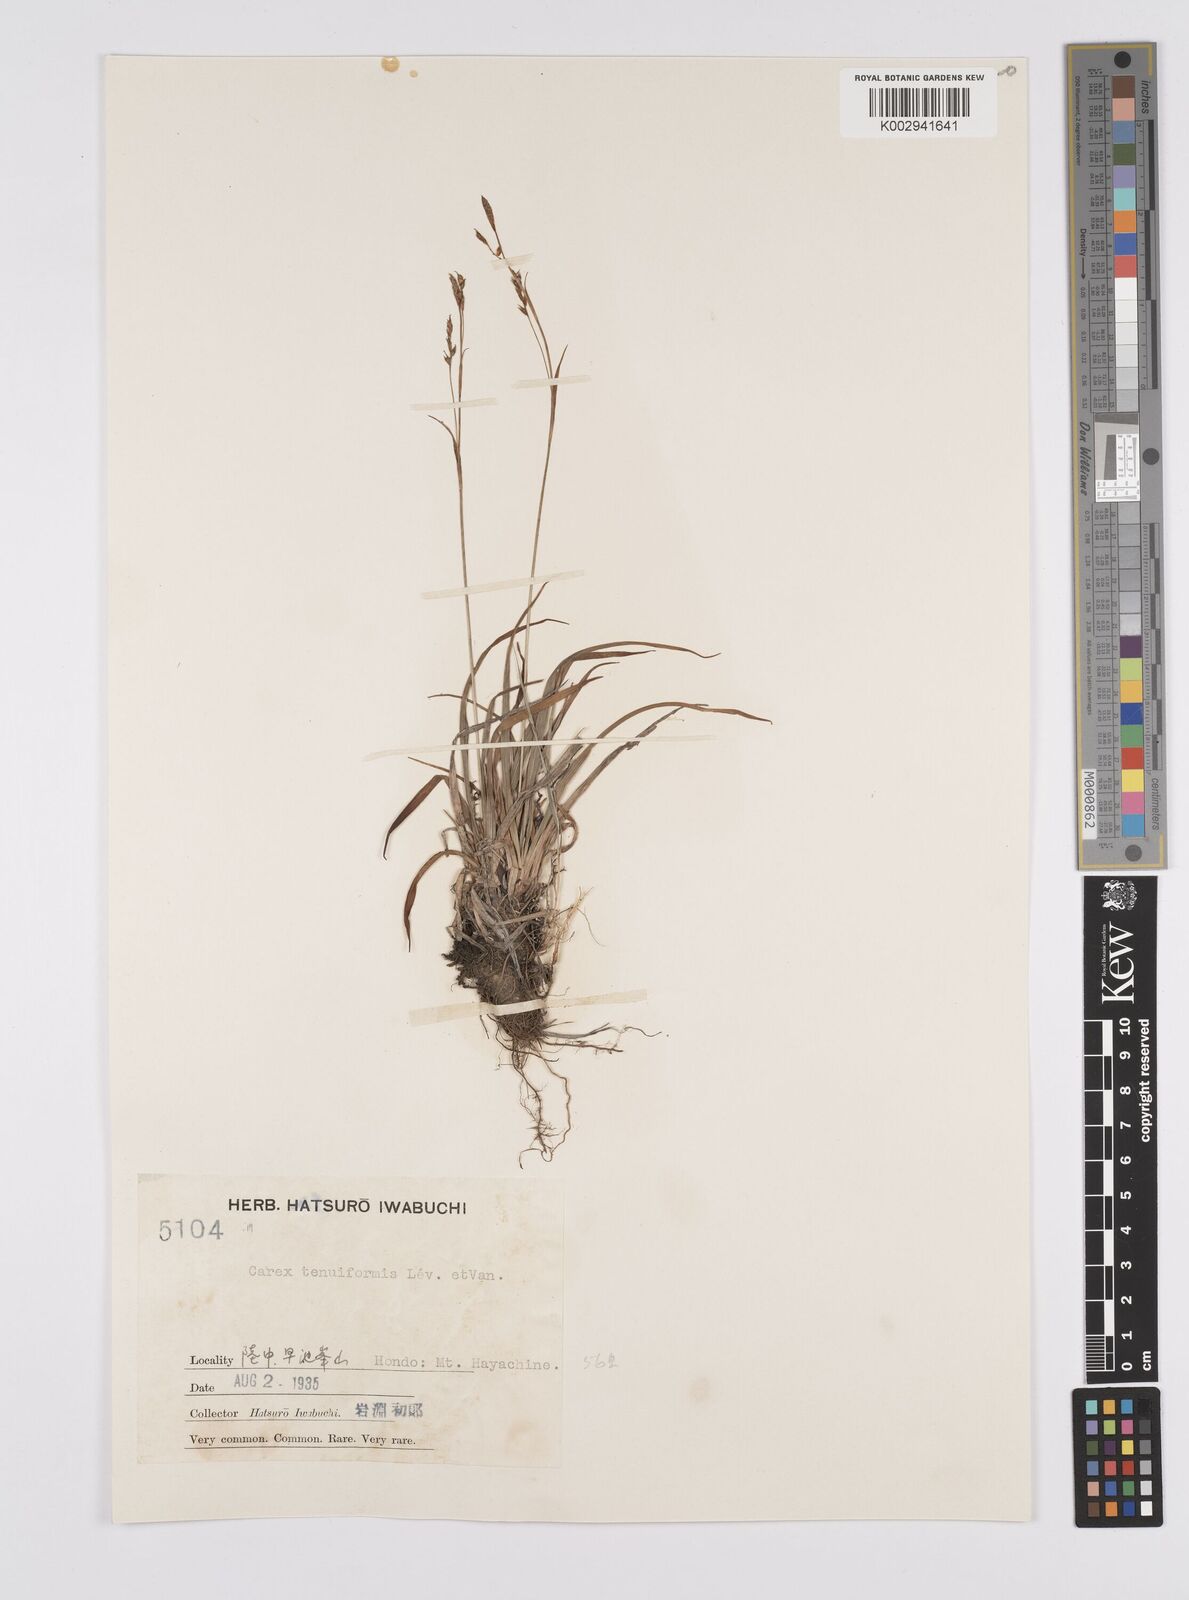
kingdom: Plantae
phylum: Tracheophyta
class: Liliopsida
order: Poales
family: Cyperaceae
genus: Carex
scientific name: Carex tenuiformis
